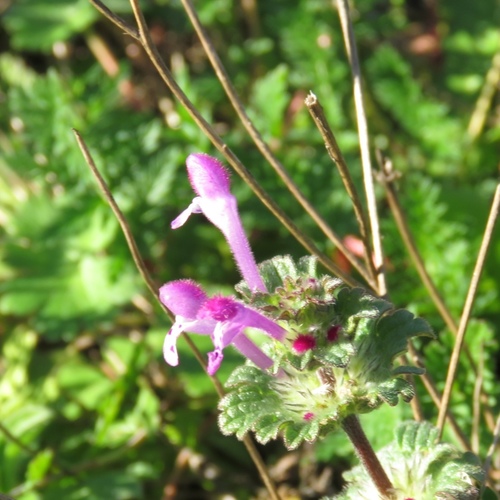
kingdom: Plantae
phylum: Tracheophyta
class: Magnoliopsida
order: Lamiales
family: Lamiaceae
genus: Lamium
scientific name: Lamium amplexicaule
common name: Henbit dead-nettle
